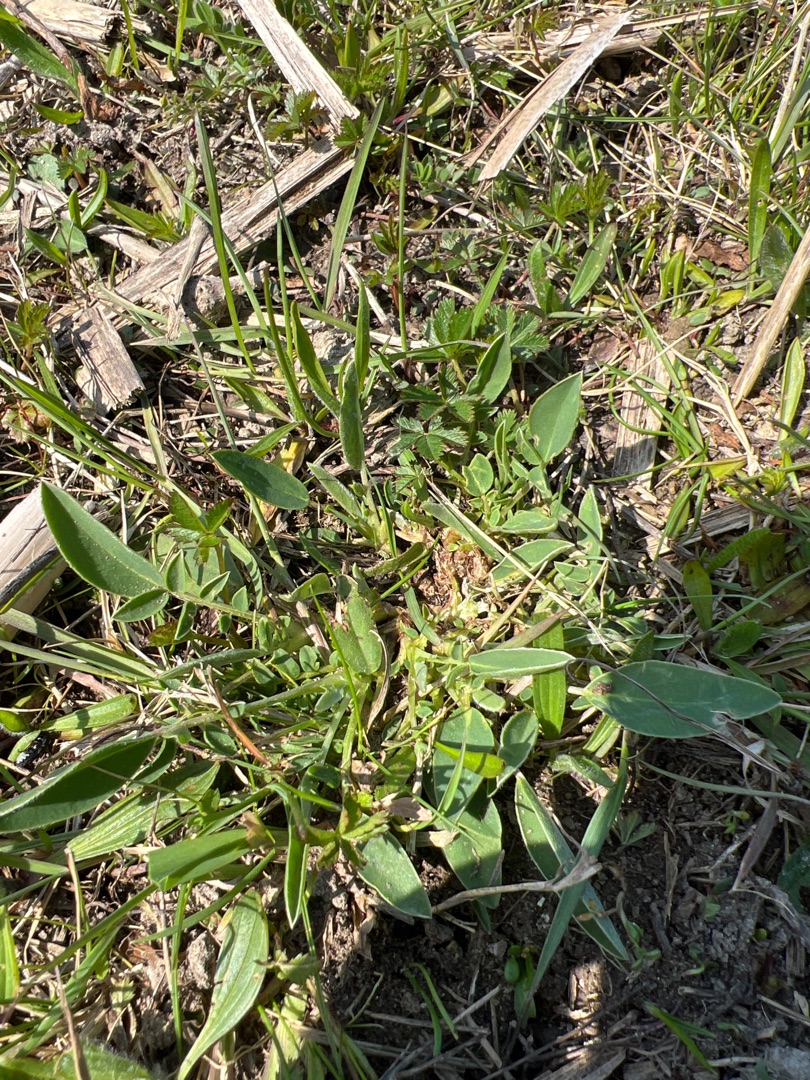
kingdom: Plantae
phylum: Tracheophyta
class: Magnoliopsida
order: Fabales
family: Fabaceae
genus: Anthyllis
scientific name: Anthyllis vulneraria
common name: Rundbælg
